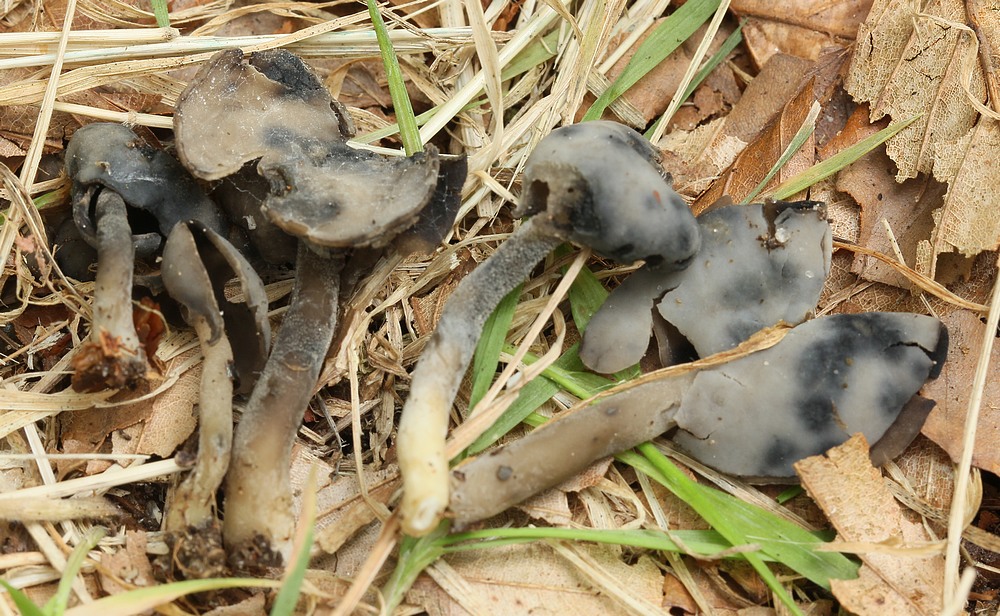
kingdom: Fungi
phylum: Ascomycota
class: Pezizomycetes
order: Pezizales
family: Helvellaceae
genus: Helvella
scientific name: Helvella
